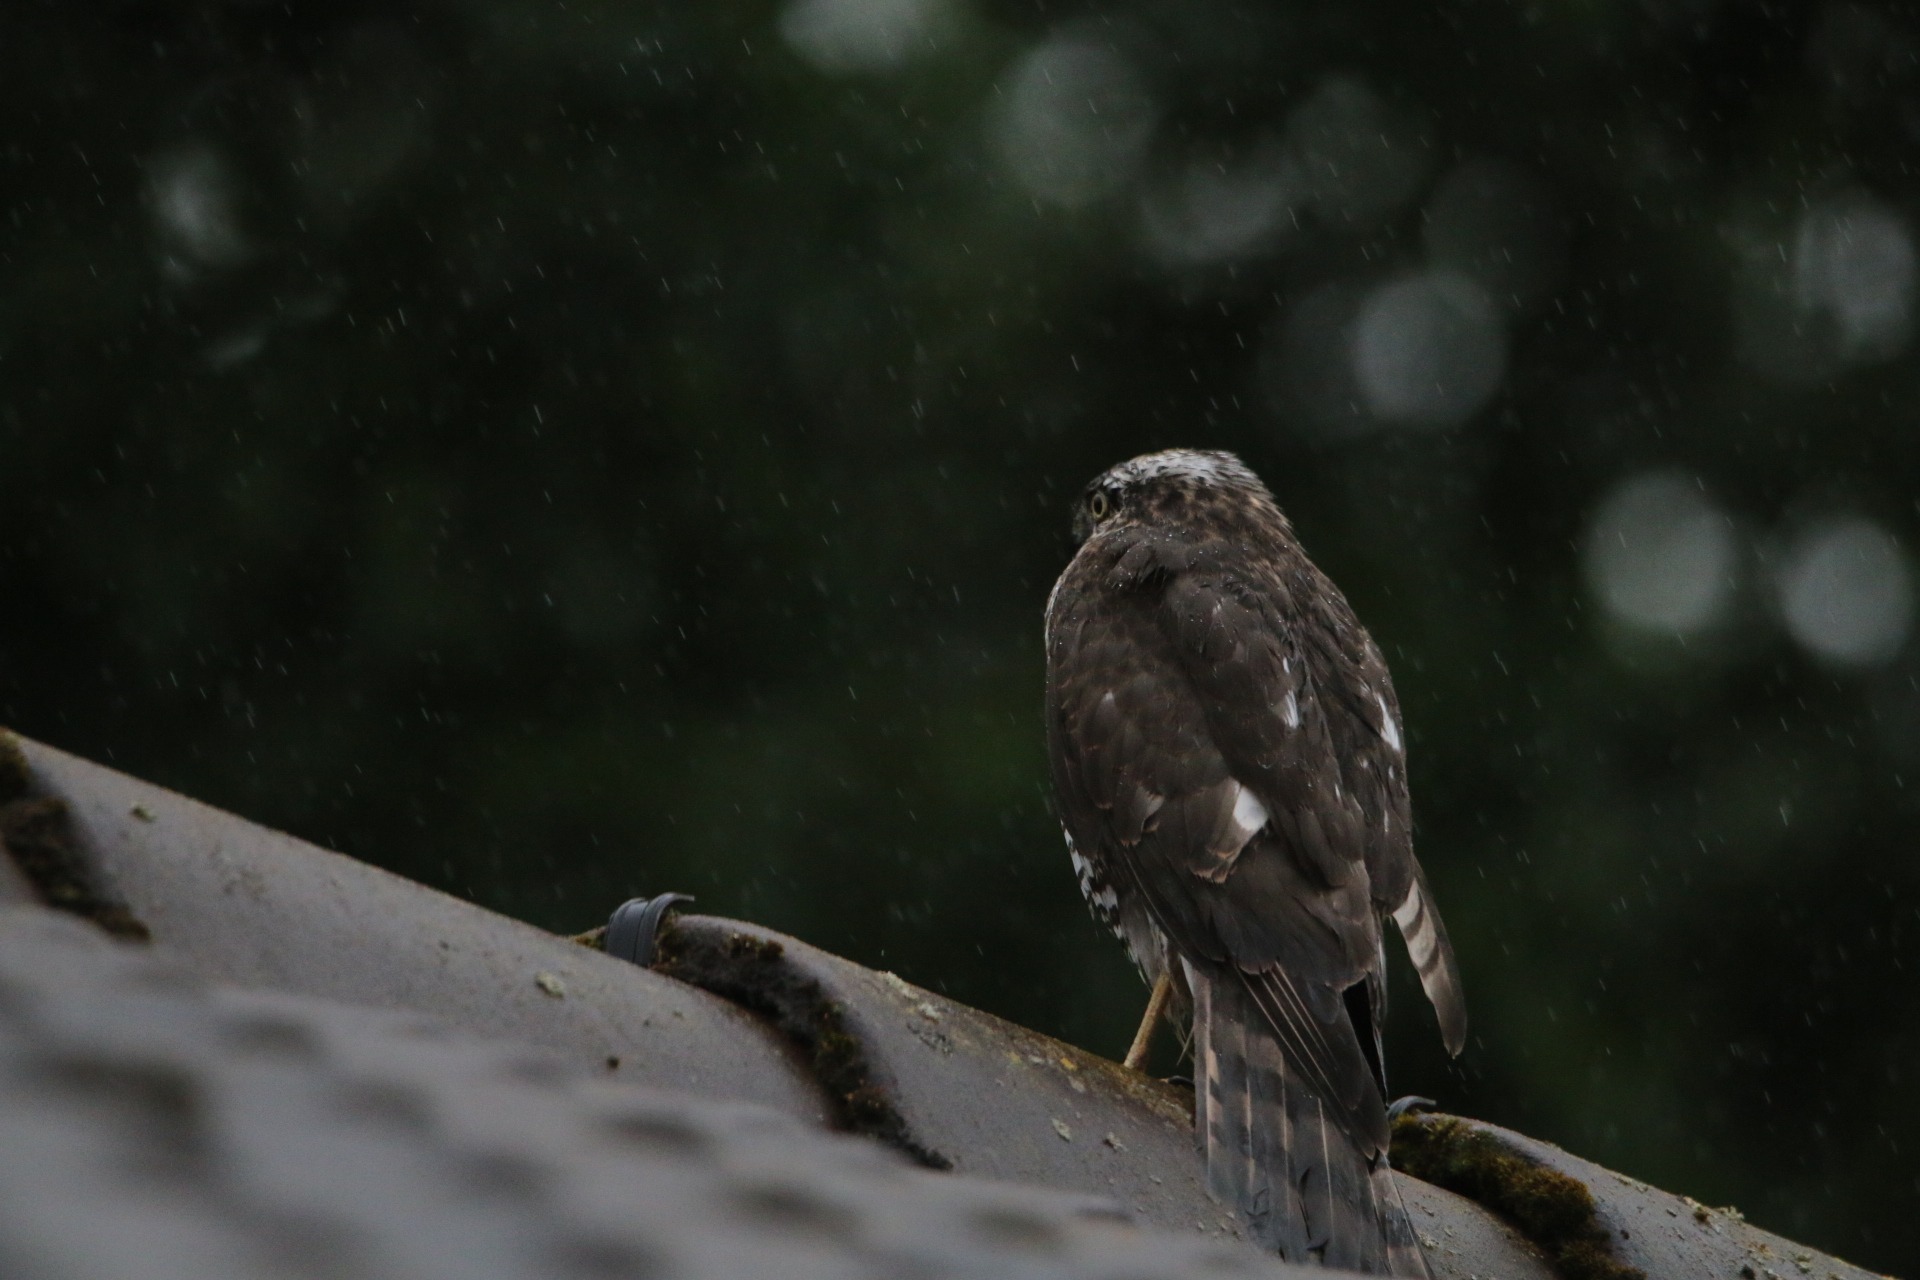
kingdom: Animalia
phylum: Chordata
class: Aves
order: Accipitriformes
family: Accipitridae
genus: Accipiter
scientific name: Accipiter nisus
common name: Spurvehøg
